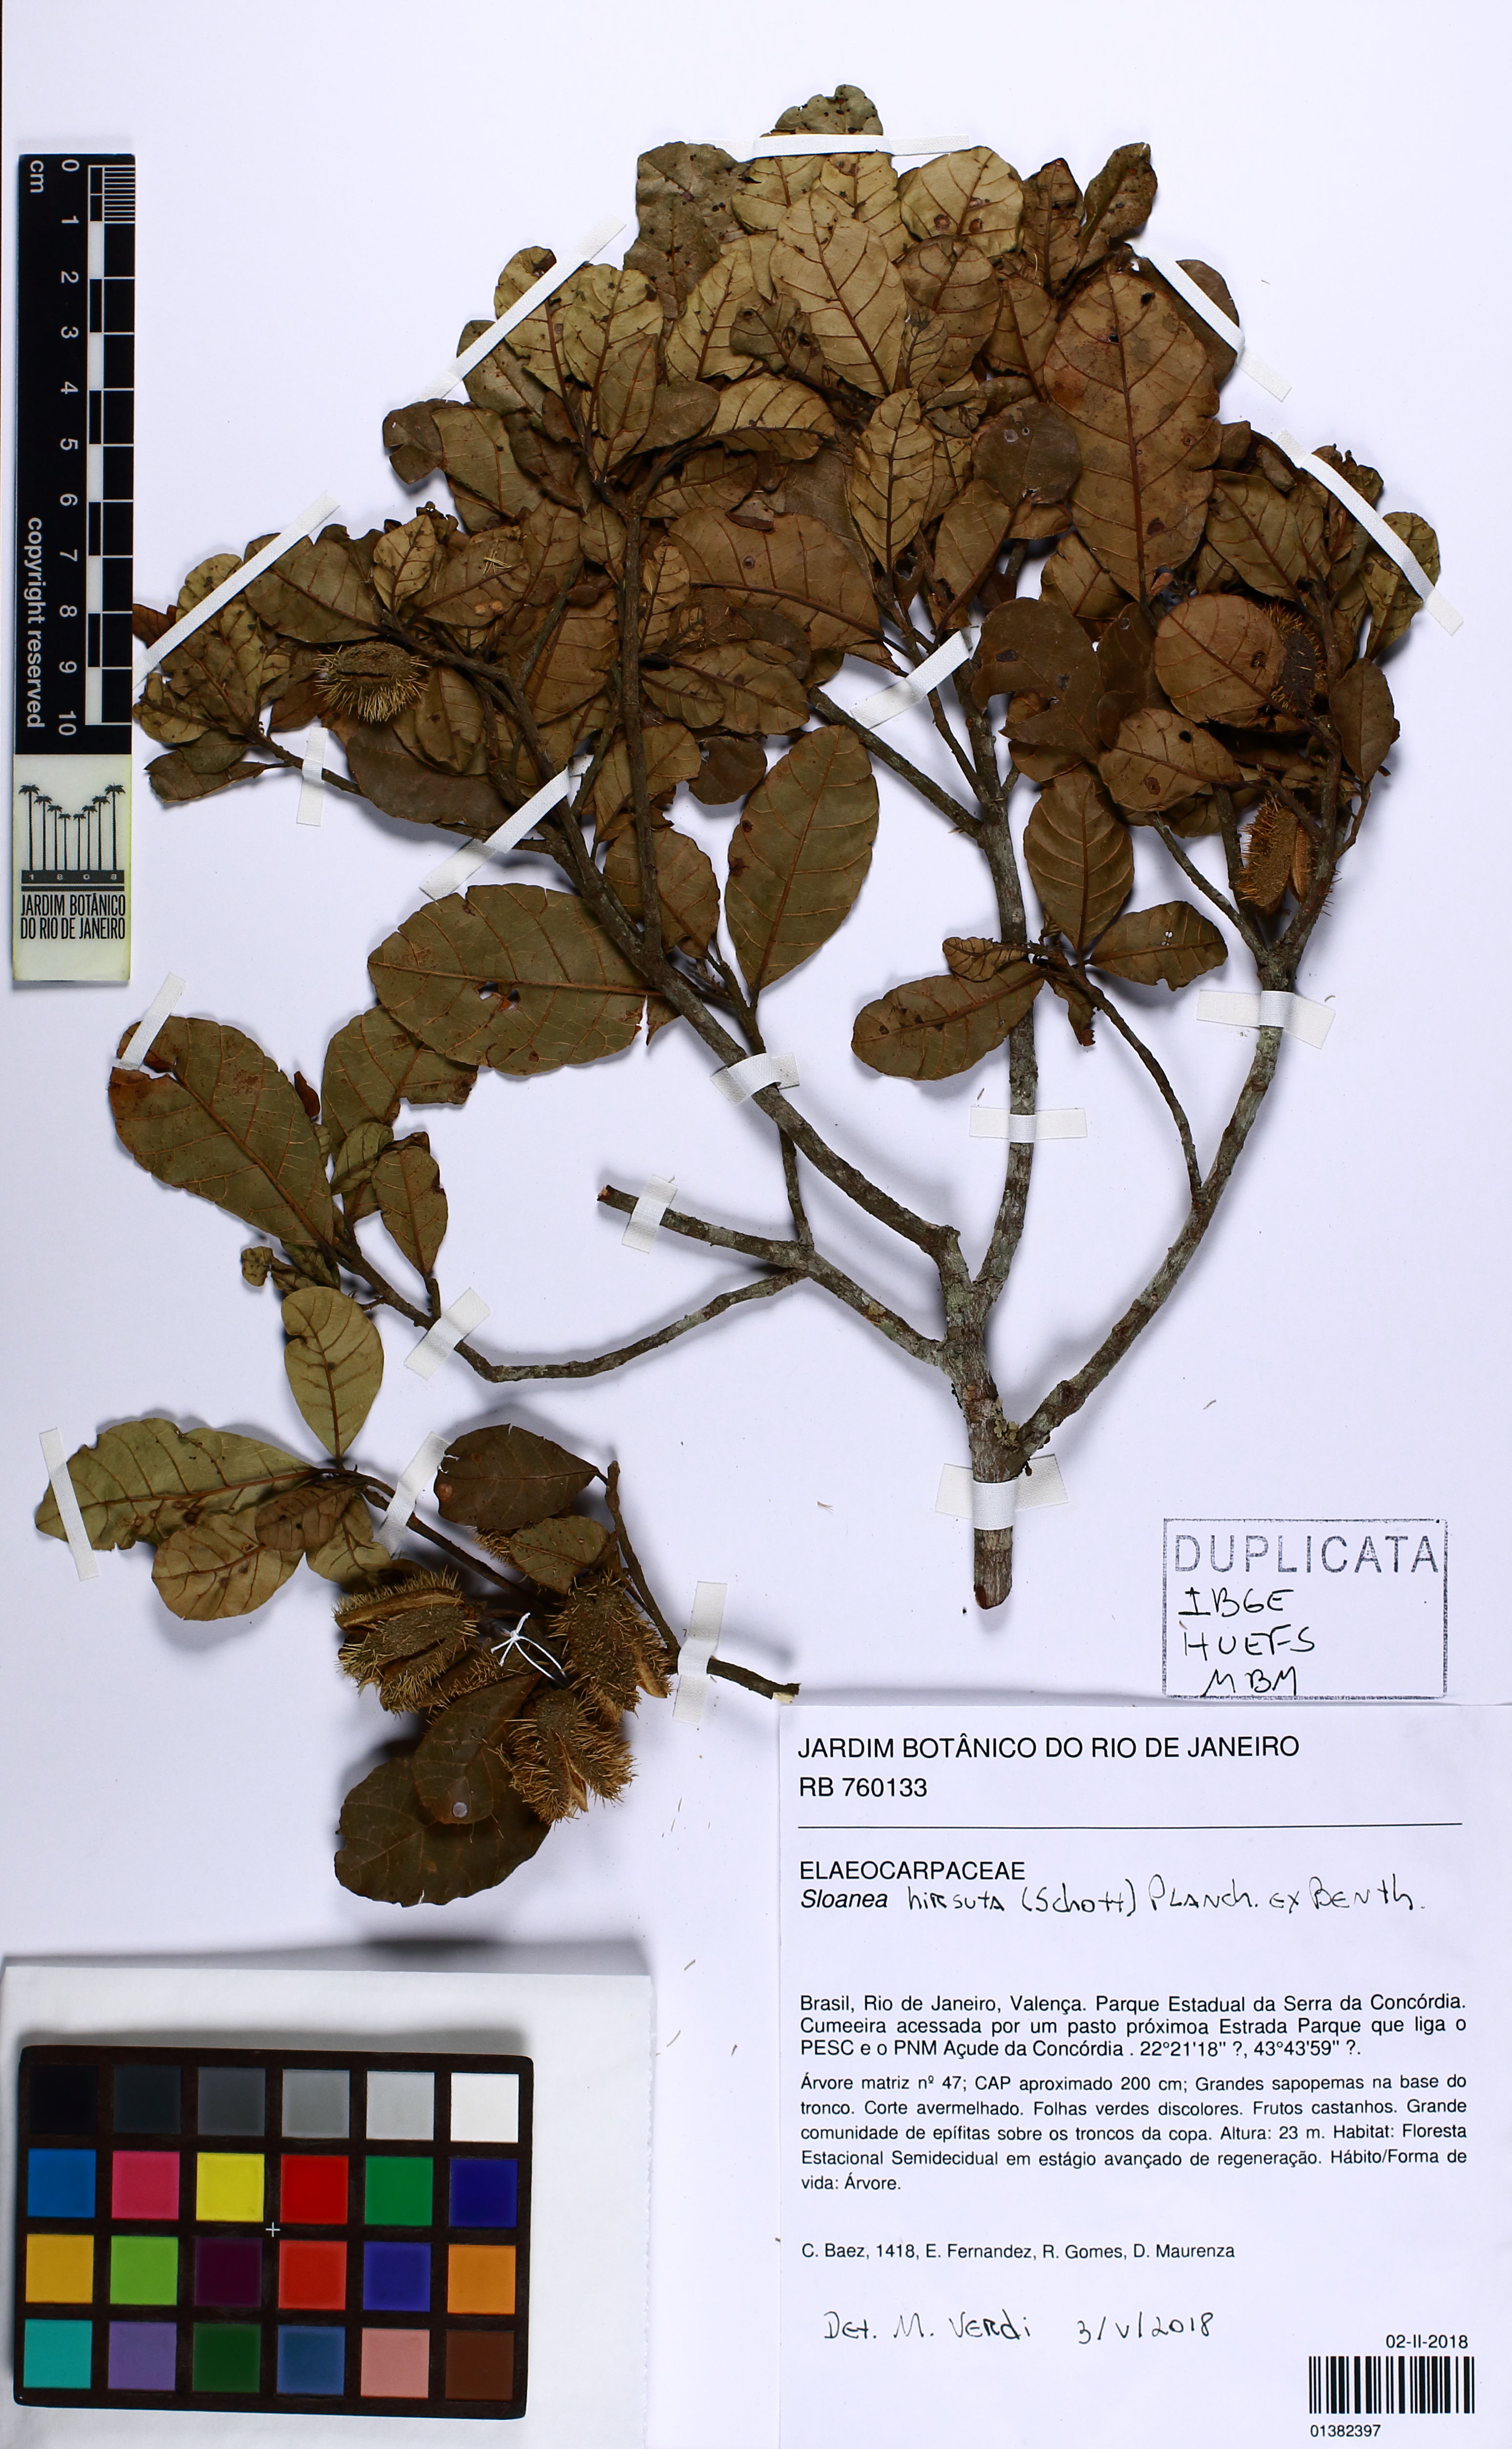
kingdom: Plantae
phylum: Tracheophyta
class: Magnoliopsida
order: Oxalidales
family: Elaeocarpaceae
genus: Sloanea
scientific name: Sloanea hirsuta
